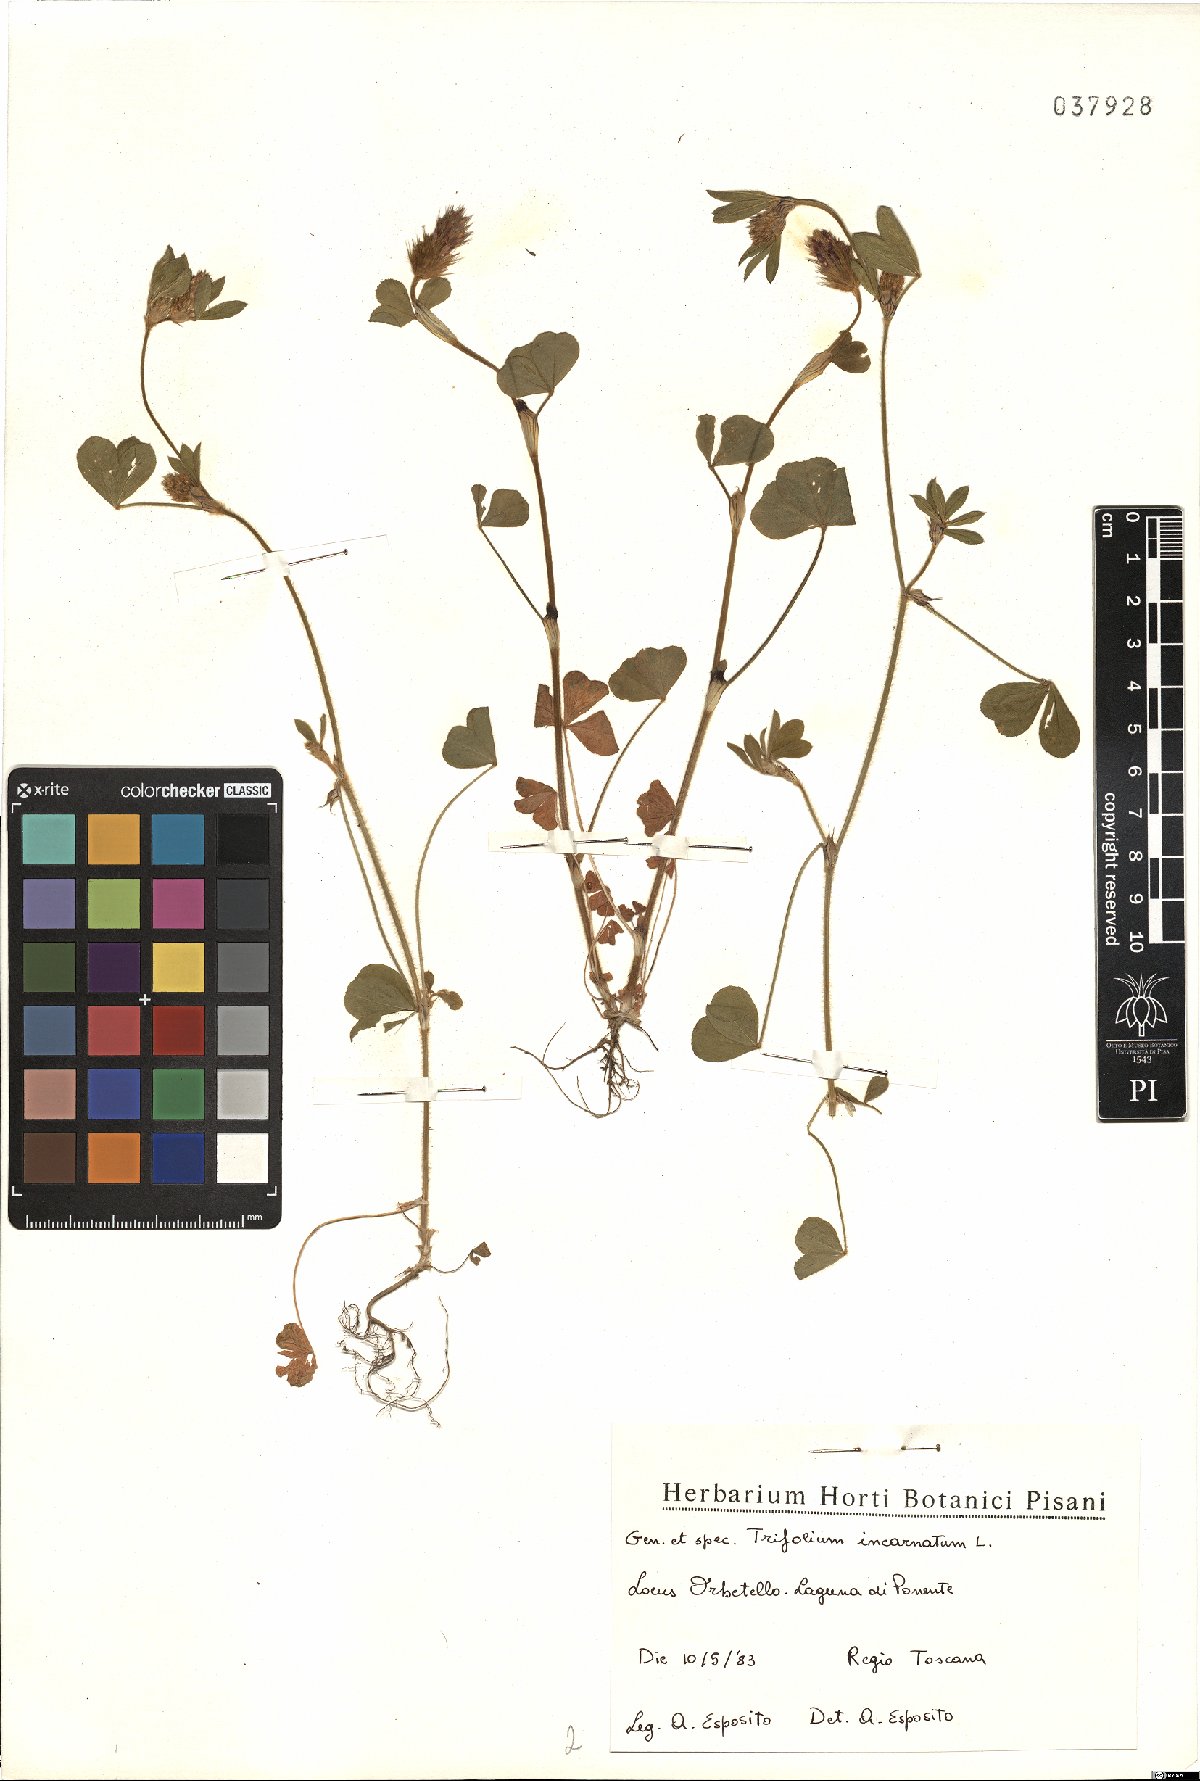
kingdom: Plantae
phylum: Tracheophyta
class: Magnoliopsida
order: Fabales
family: Fabaceae
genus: Trifolium
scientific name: Trifolium incarnatum
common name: Crimson clover
